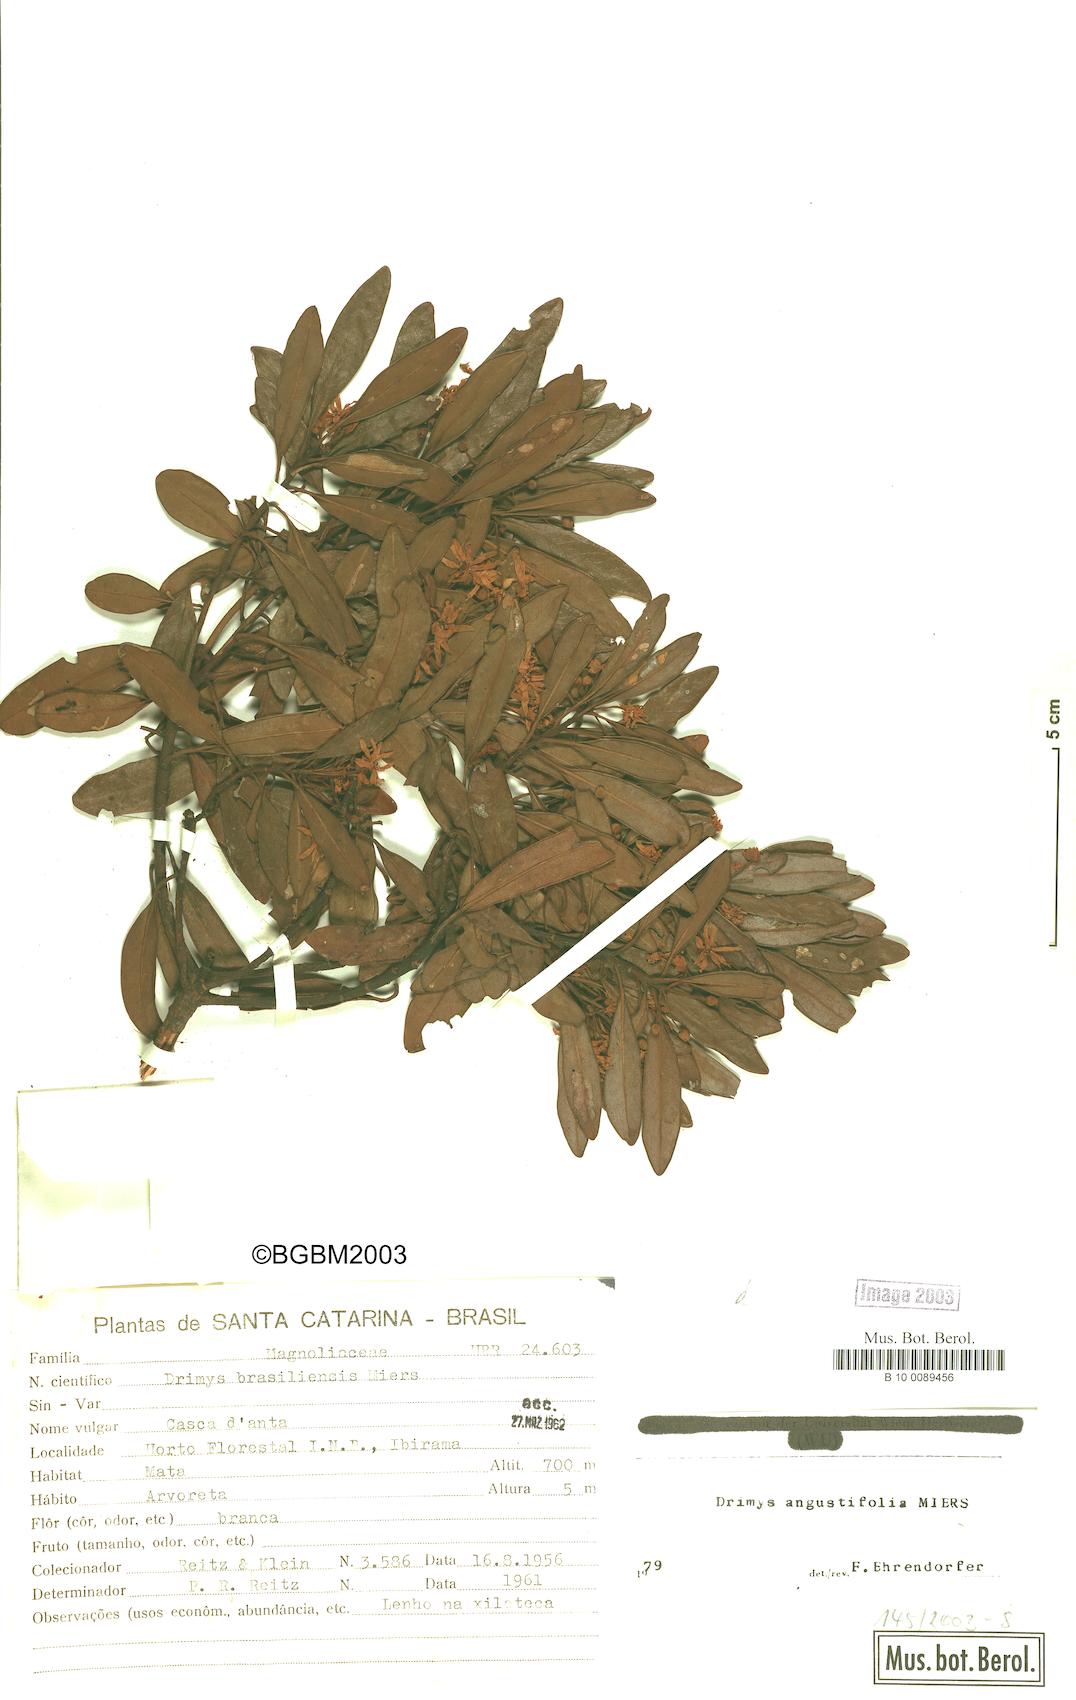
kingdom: Plantae
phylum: Tracheophyta
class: Magnoliopsida
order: Canellales
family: Winteraceae
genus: Drimys
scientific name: Drimys angustifolia
